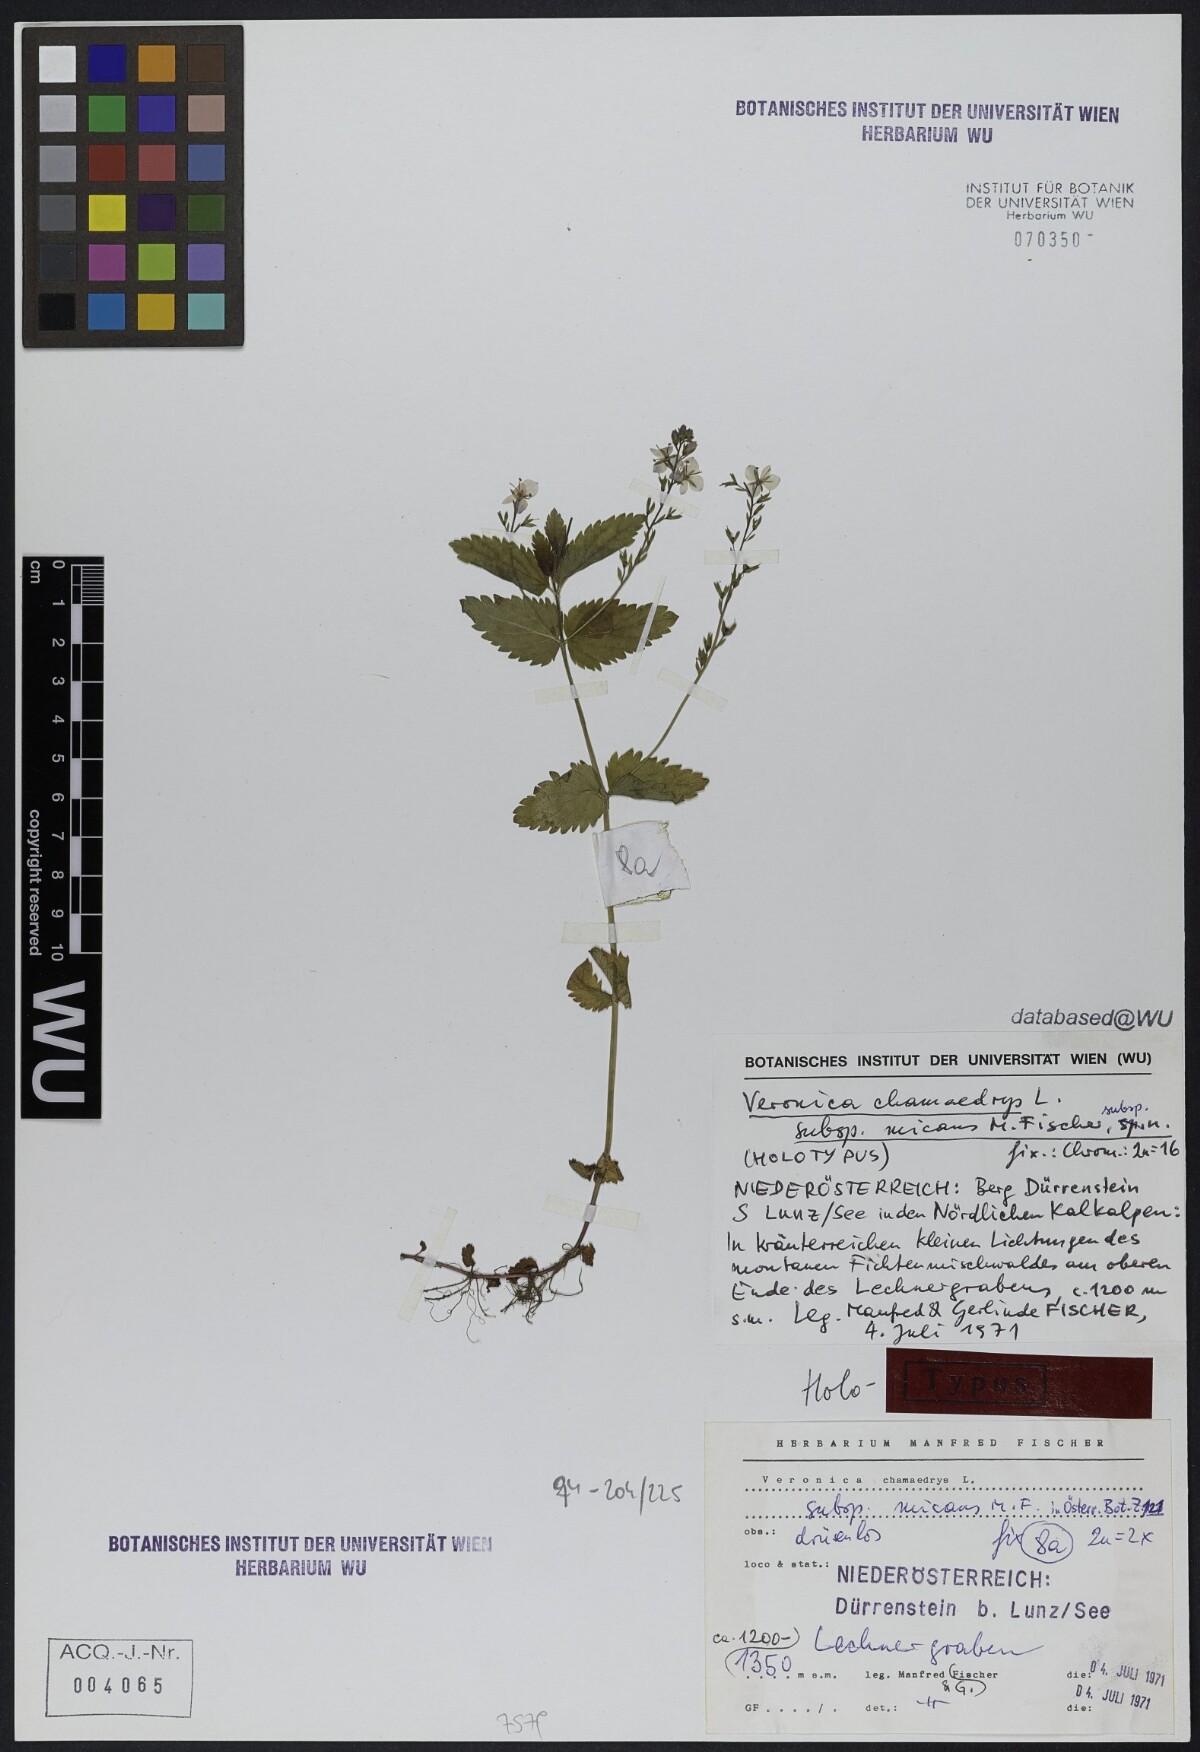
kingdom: Plantae
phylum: Tracheophyta
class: Magnoliopsida
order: Lamiales
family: Plantaginaceae
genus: Veronica
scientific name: Veronica chamaedrys
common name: Germander speedwell
